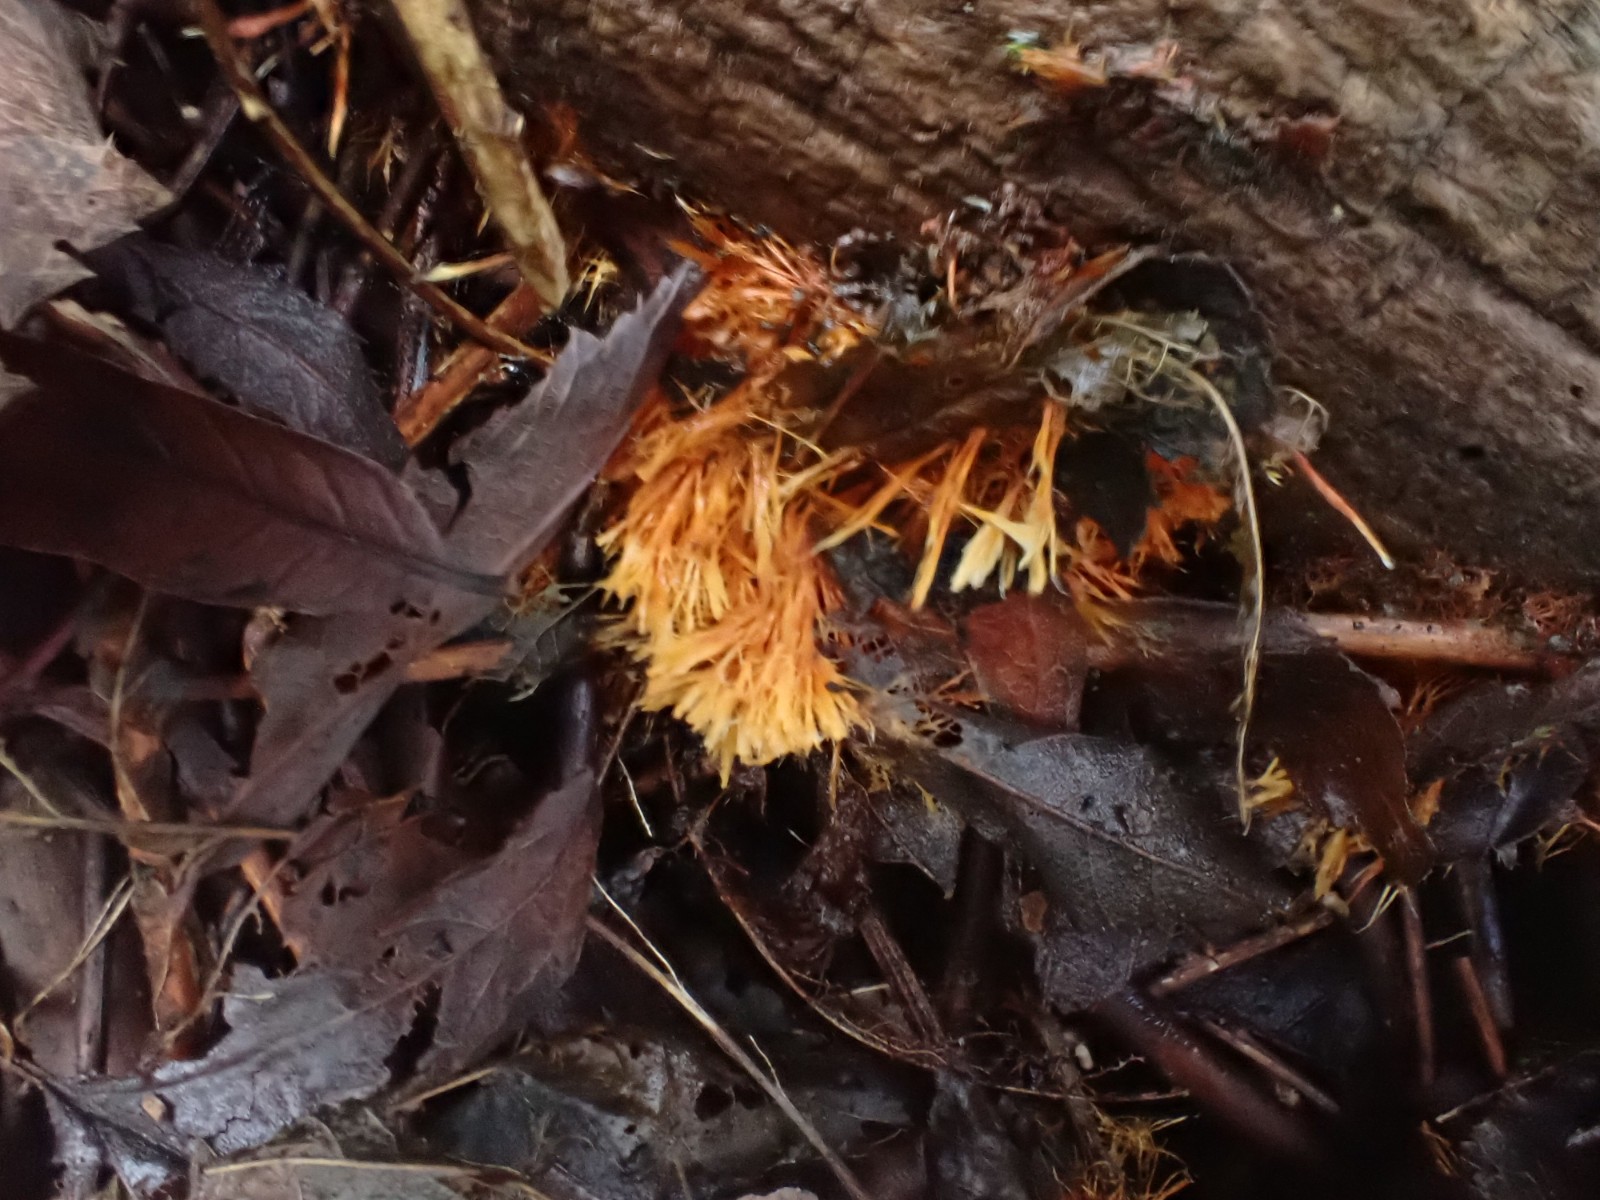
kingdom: Fungi
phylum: Basidiomycota
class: Agaricomycetes
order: Agaricales
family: Psathyrellaceae
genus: Ozonium
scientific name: Ozonium
